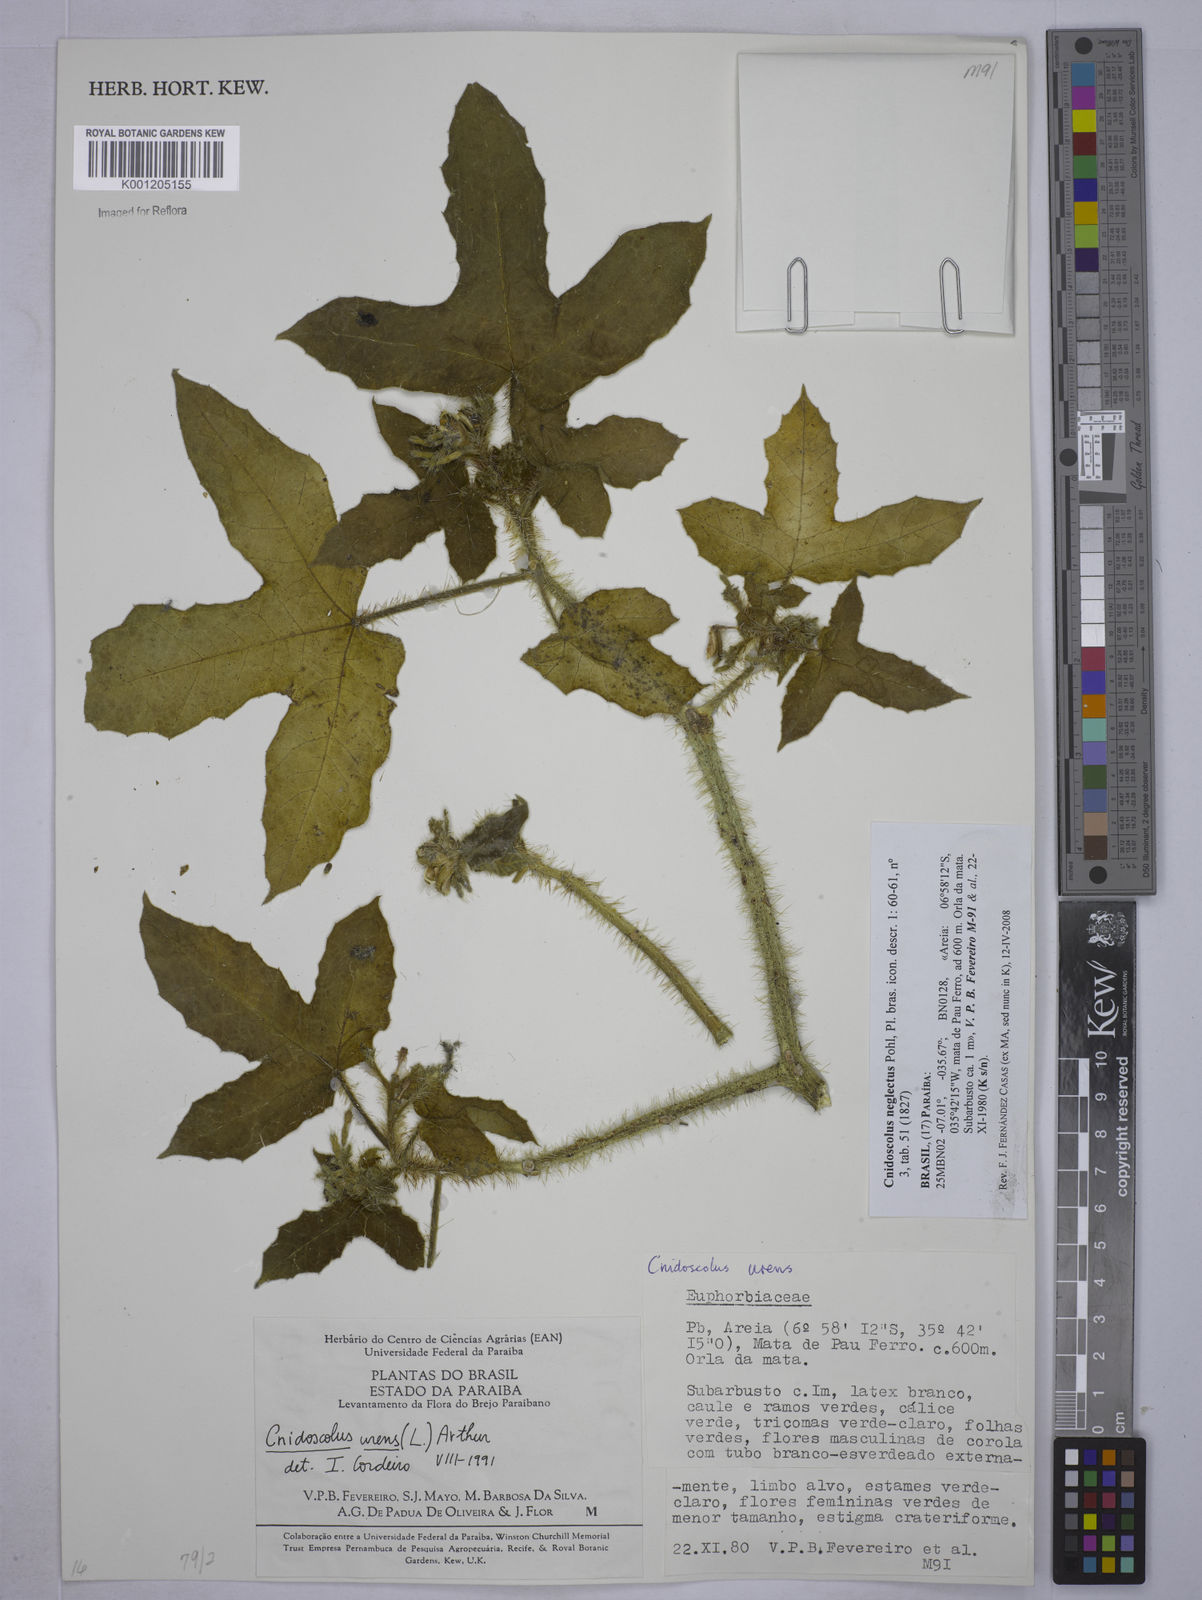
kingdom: Plantae
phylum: Tracheophyta
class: Magnoliopsida
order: Malpighiales
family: Euphorbiaceae
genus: Cnidoscolus
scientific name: Cnidoscolus neglectus
